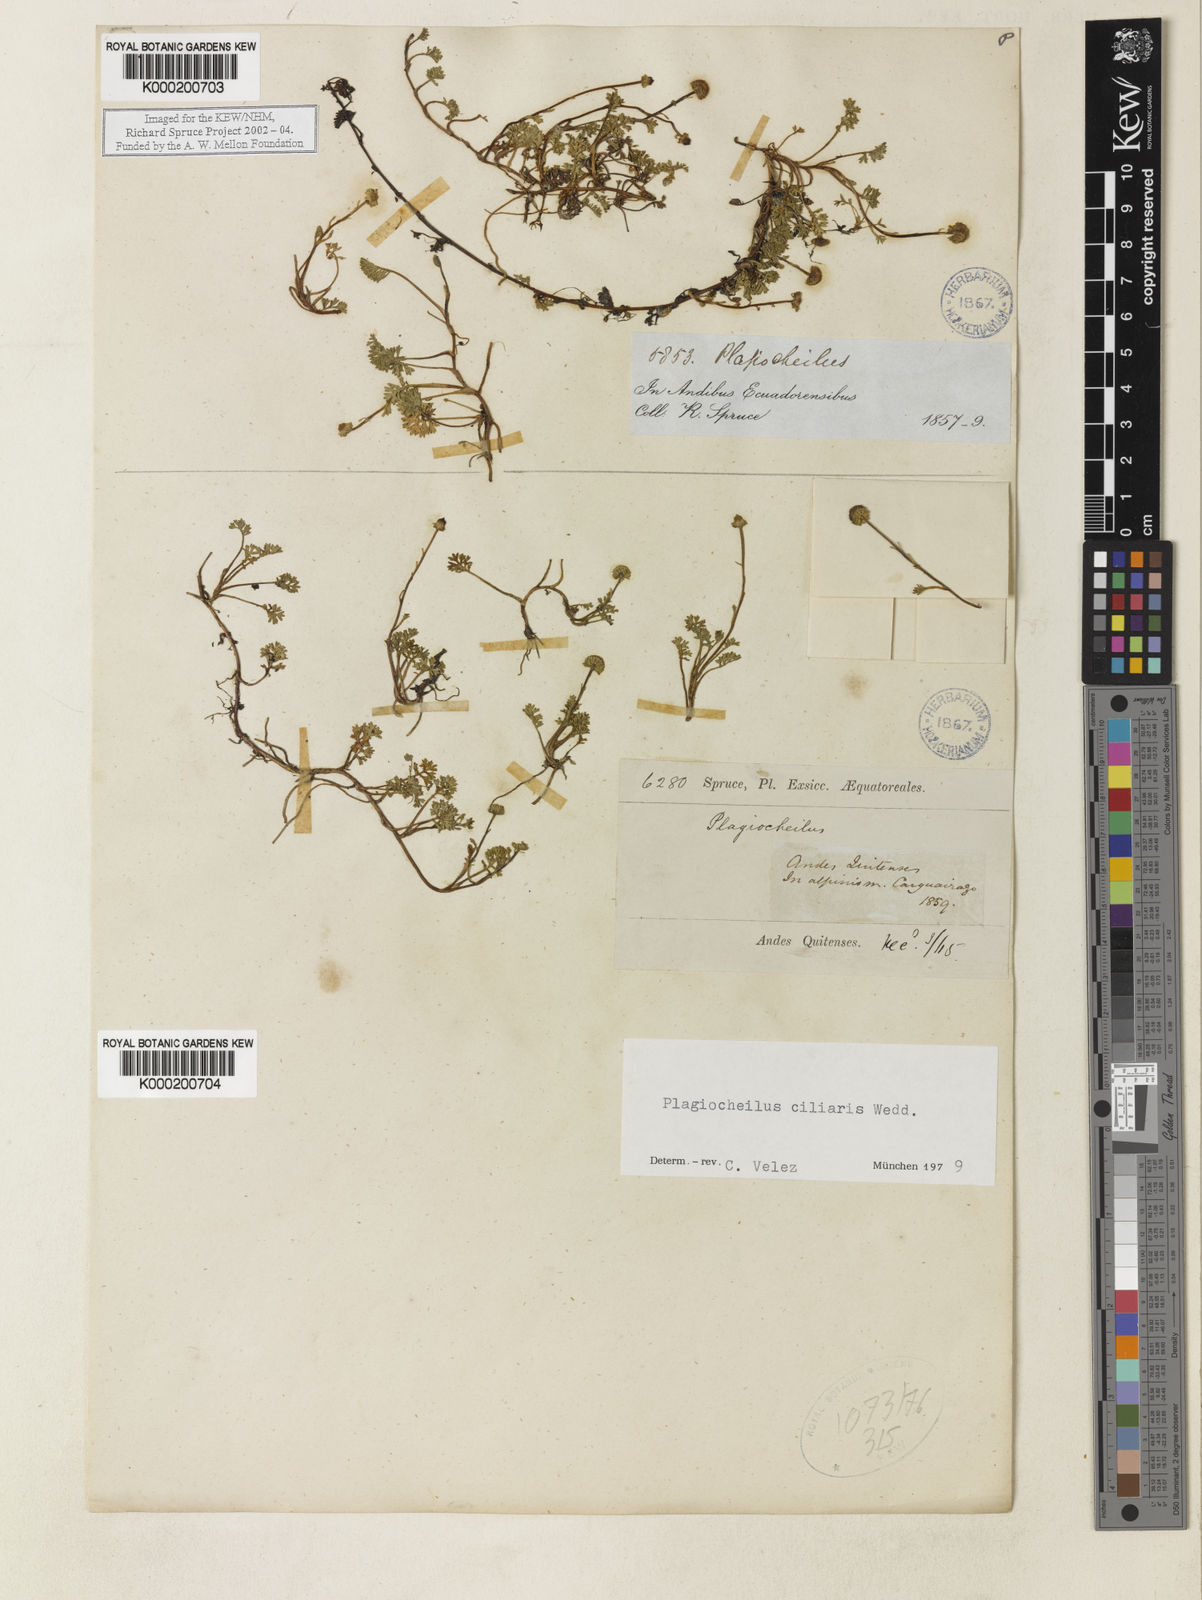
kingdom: Plantae
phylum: Tracheophyta
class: Magnoliopsida
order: Asterales
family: Asteraceae
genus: Plagiocheilus
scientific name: Plagiocheilus
